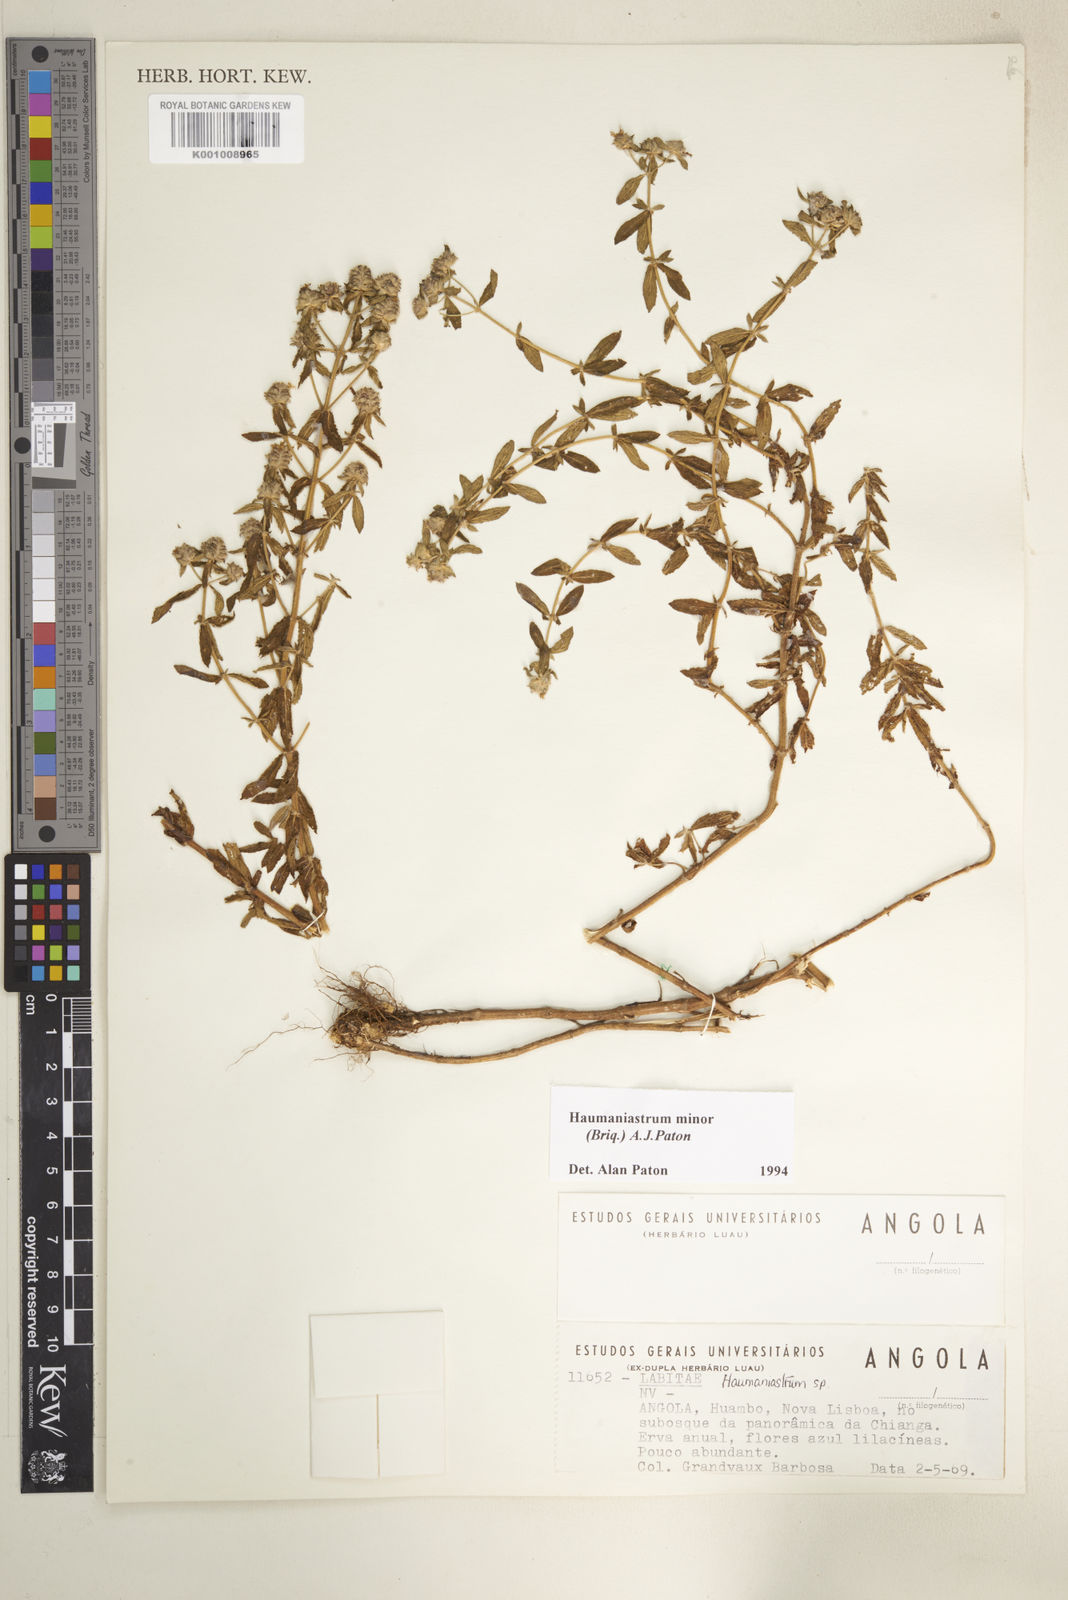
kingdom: Plantae
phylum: Tracheophyta
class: Magnoliopsida
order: Lamiales
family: Lamiaceae
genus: Haumaniastrum
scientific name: Haumaniastrum minor
